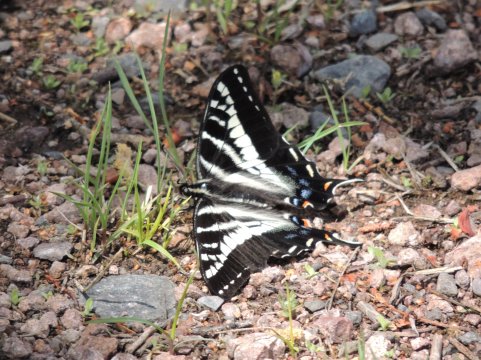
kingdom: Animalia
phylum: Arthropoda
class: Insecta
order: Lepidoptera
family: Papilionidae
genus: Pterourus
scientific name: Pterourus eurymedon
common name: Pale Swallowtail
